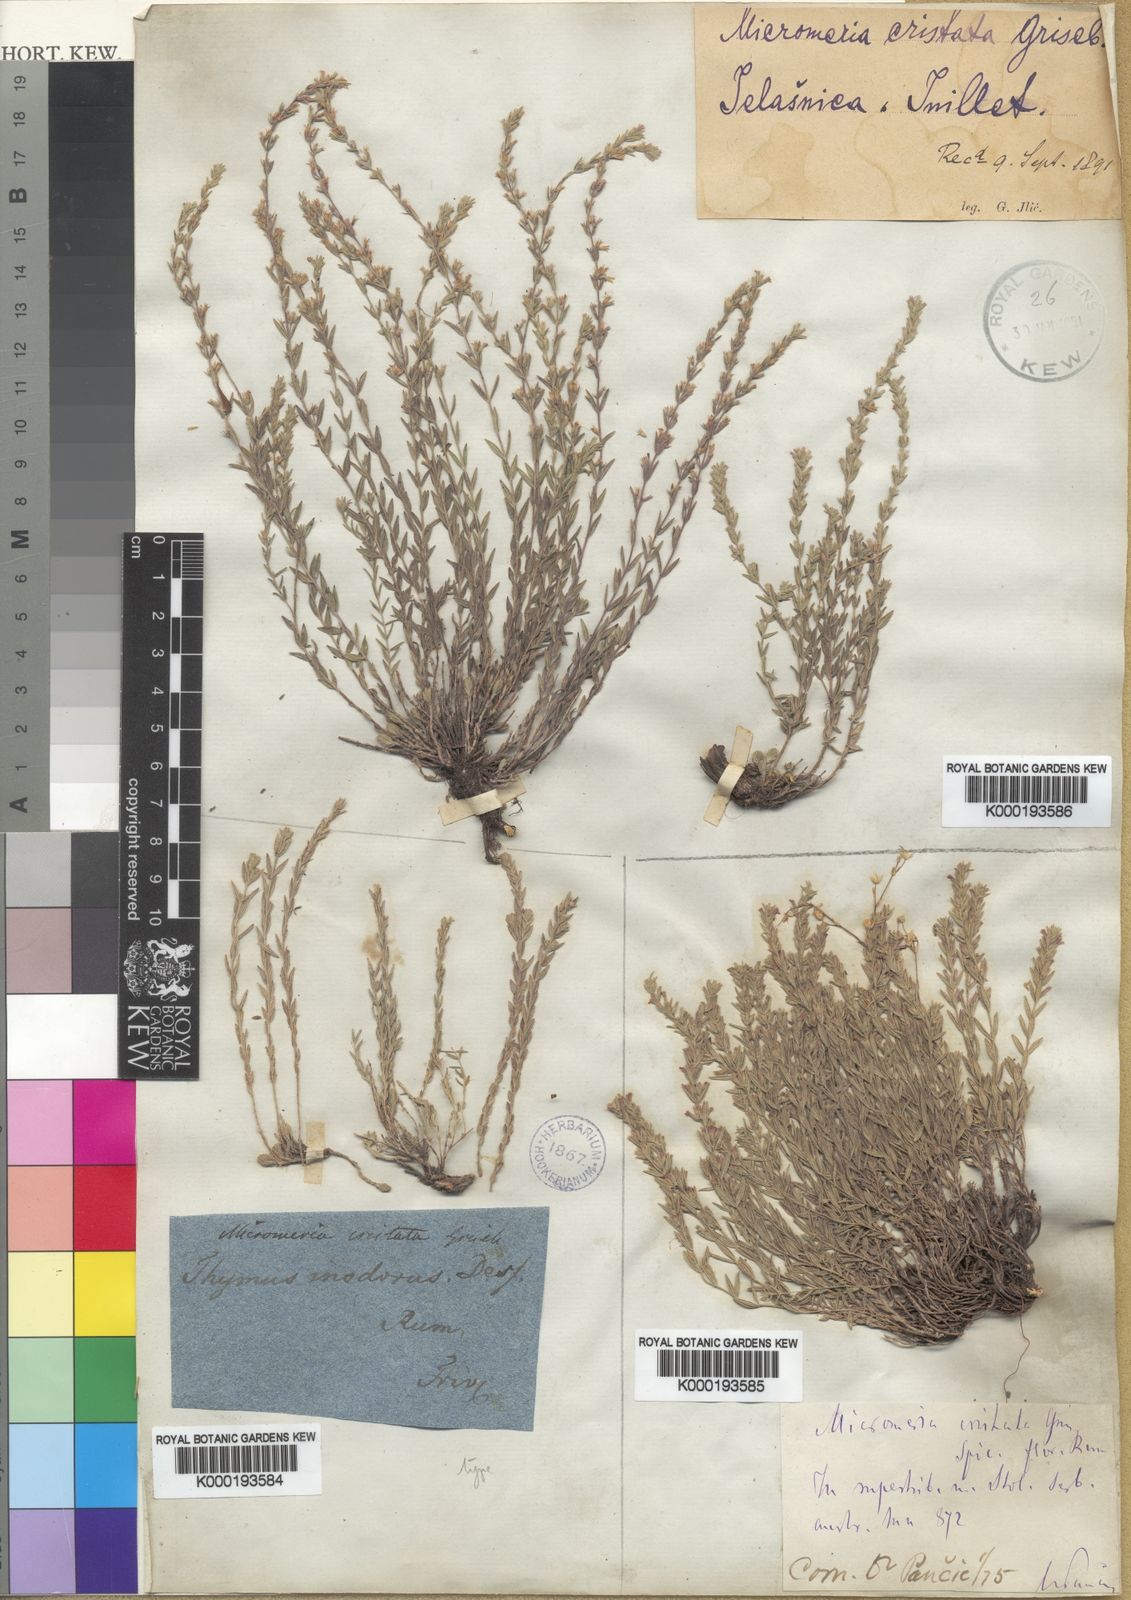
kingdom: Plantae
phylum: Tracheophyta
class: Magnoliopsida
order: Lamiales
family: Lamiaceae
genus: Micromeria
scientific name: Micromeria cristata
